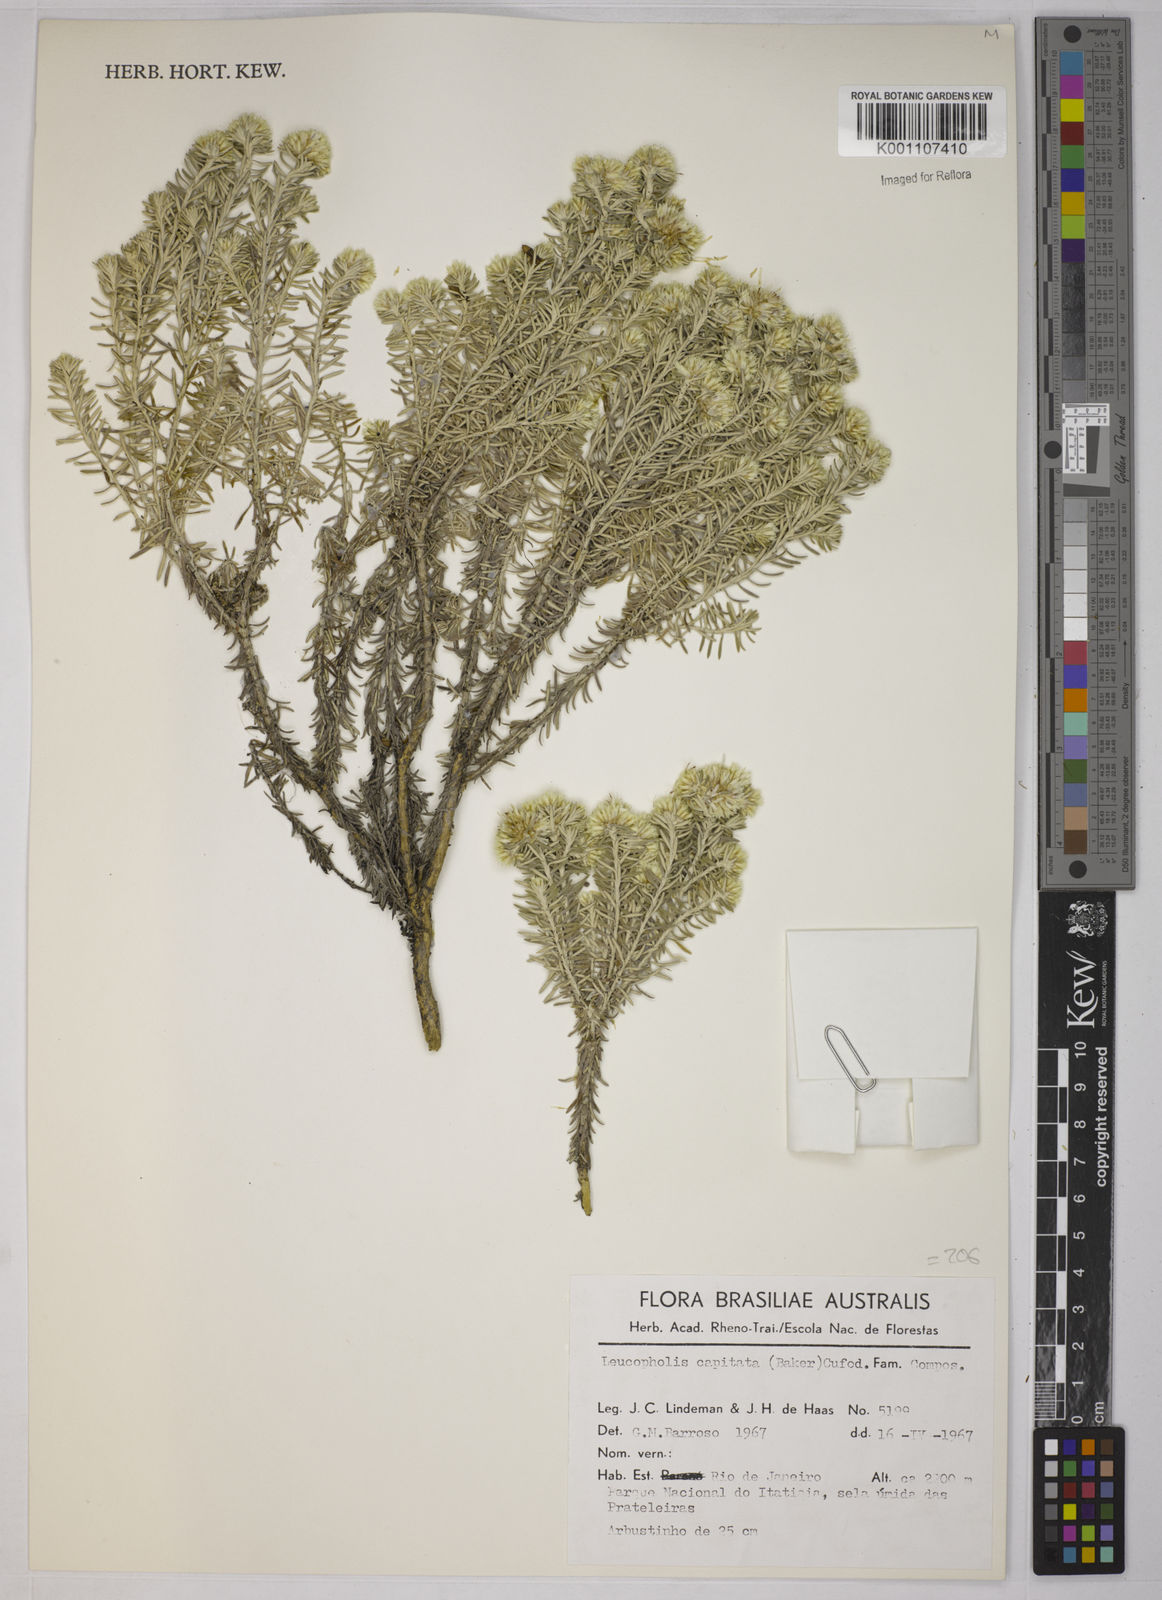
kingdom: Plantae
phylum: Tracheophyta
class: Magnoliopsida
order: Asterales
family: Asteraceae
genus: Chionolaena
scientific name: Chionolaena capitata
